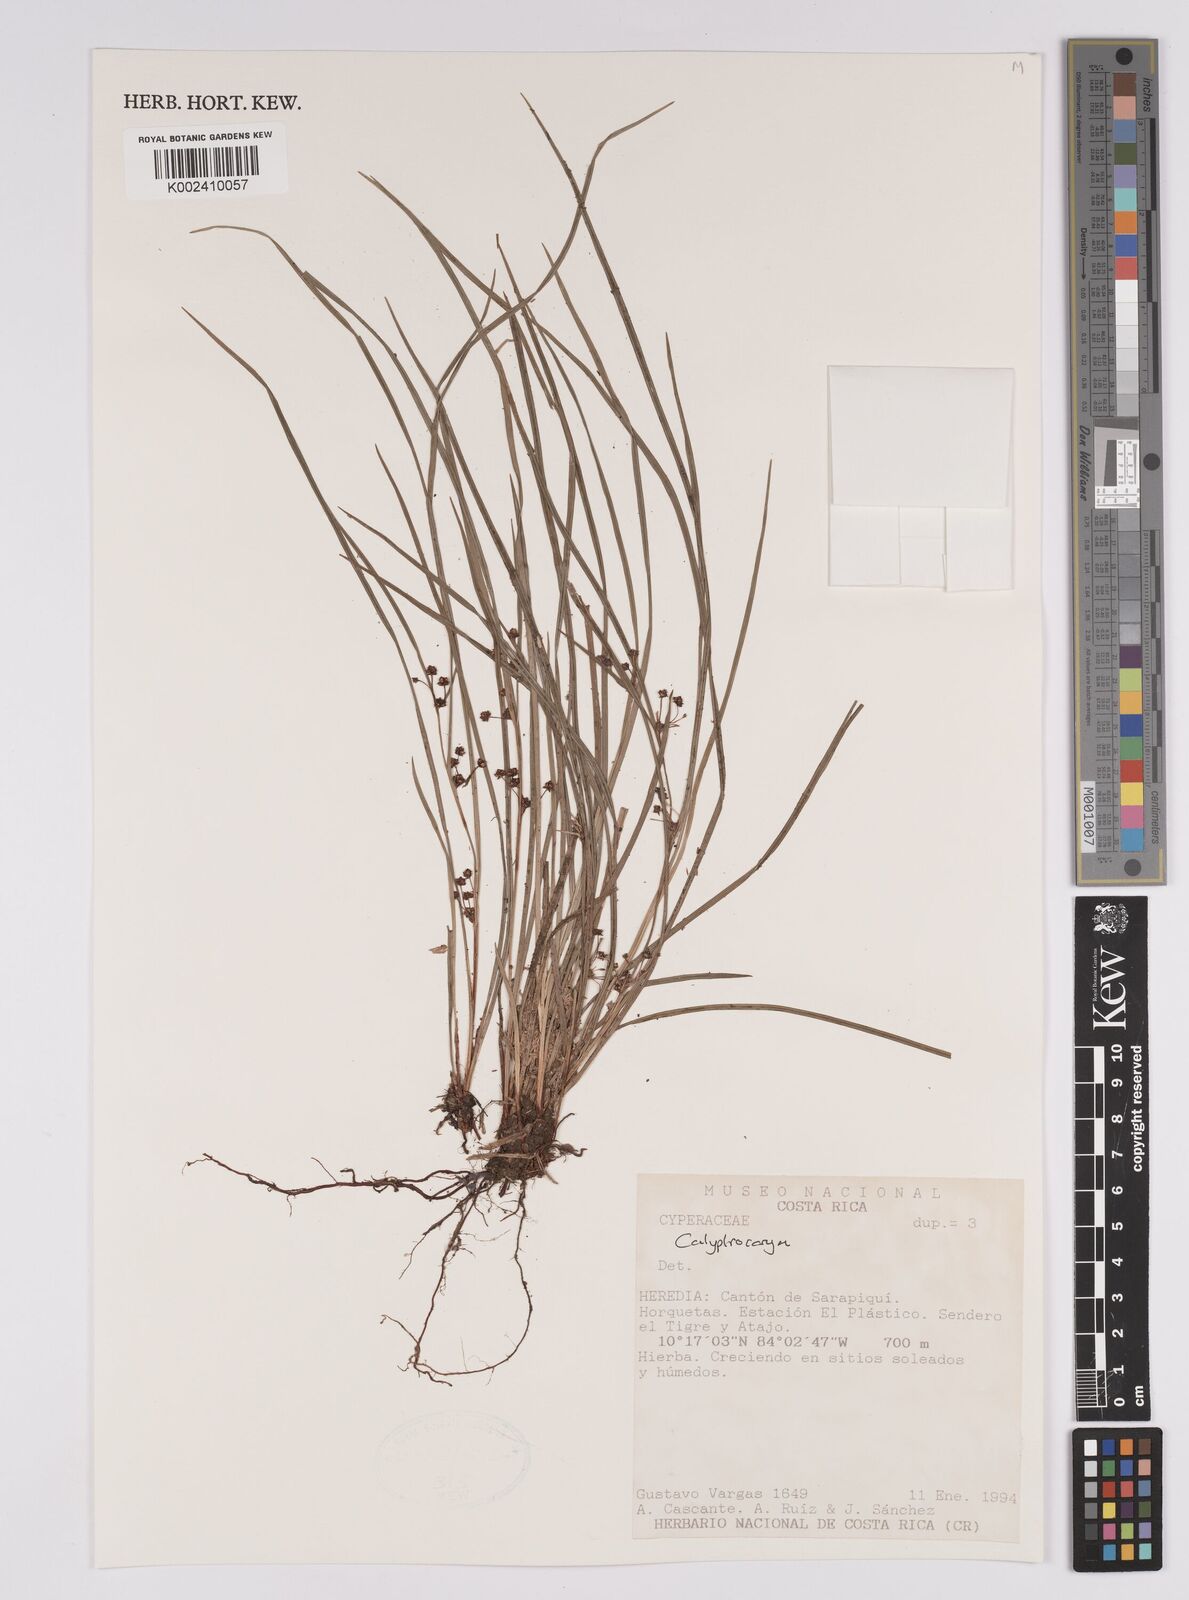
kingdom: Plantae
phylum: Tracheophyta
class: Liliopsida
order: Poales
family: Cyperaceae
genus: Calyptrocarya
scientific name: Calyptrocarya
